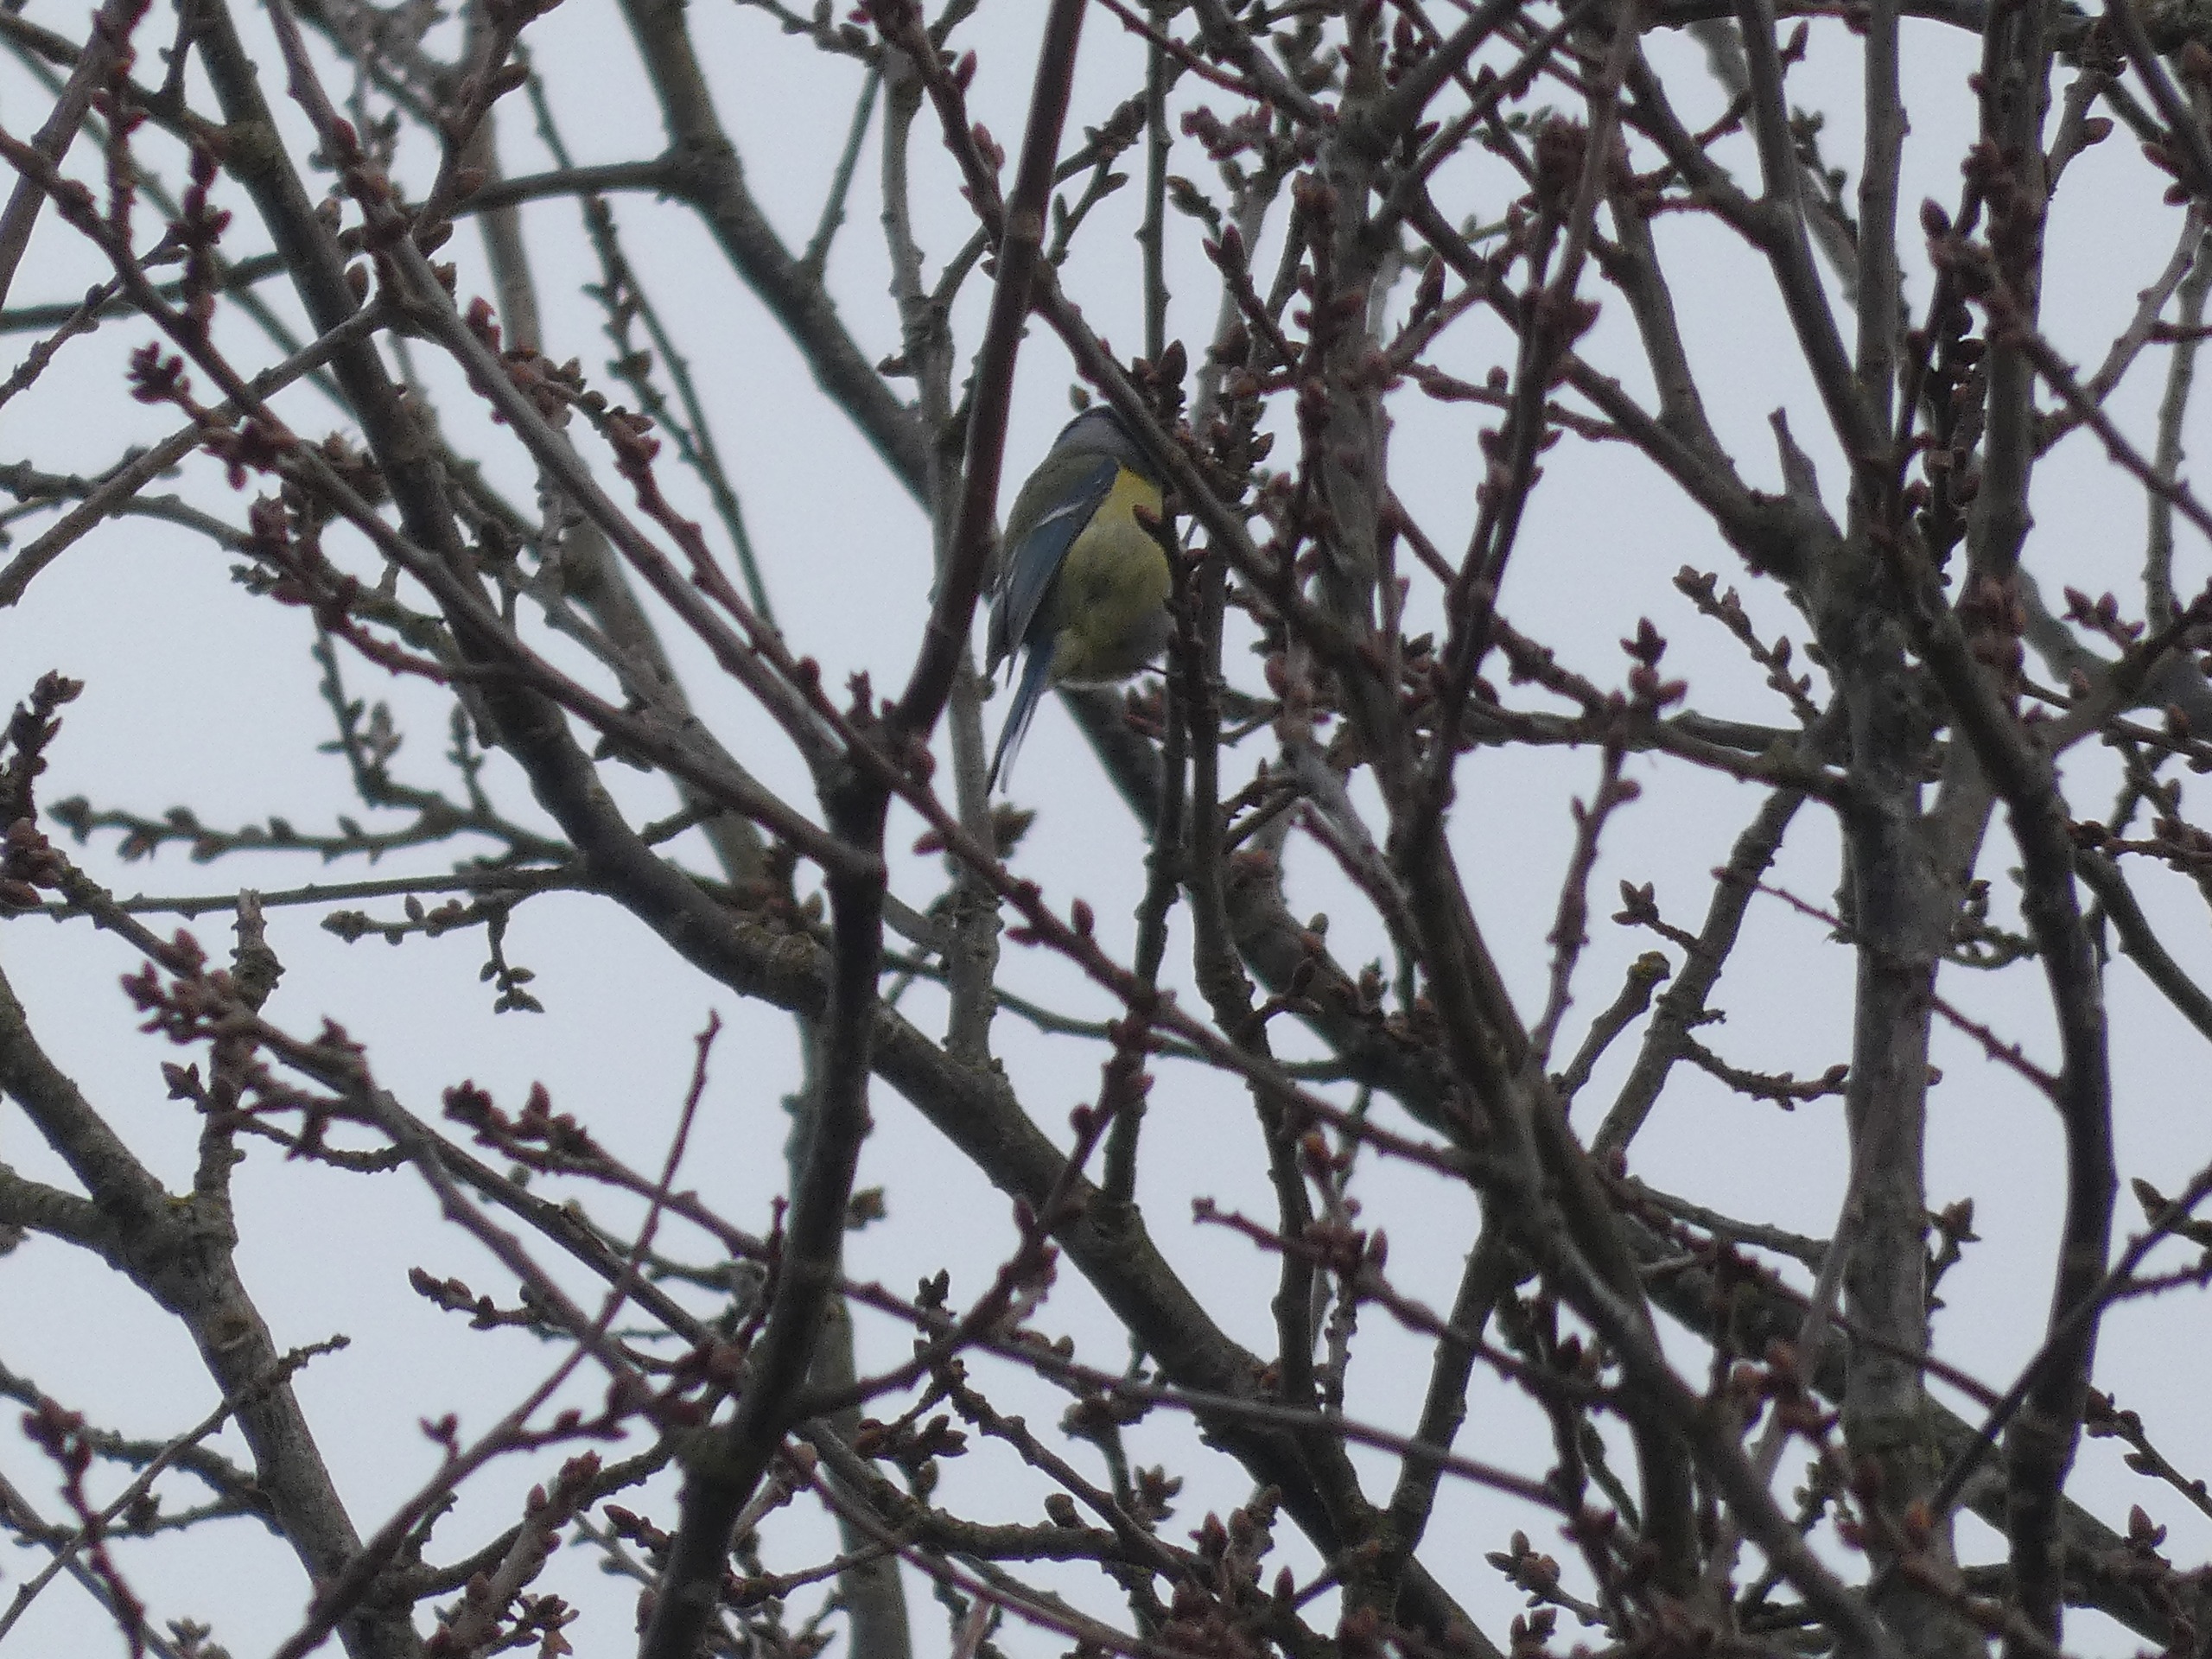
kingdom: Animalia
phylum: Chordata
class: Aves
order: Passeriformes
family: Paridae
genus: Cyanistes
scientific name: Cyanistes caeruleus
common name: Blåmejse
